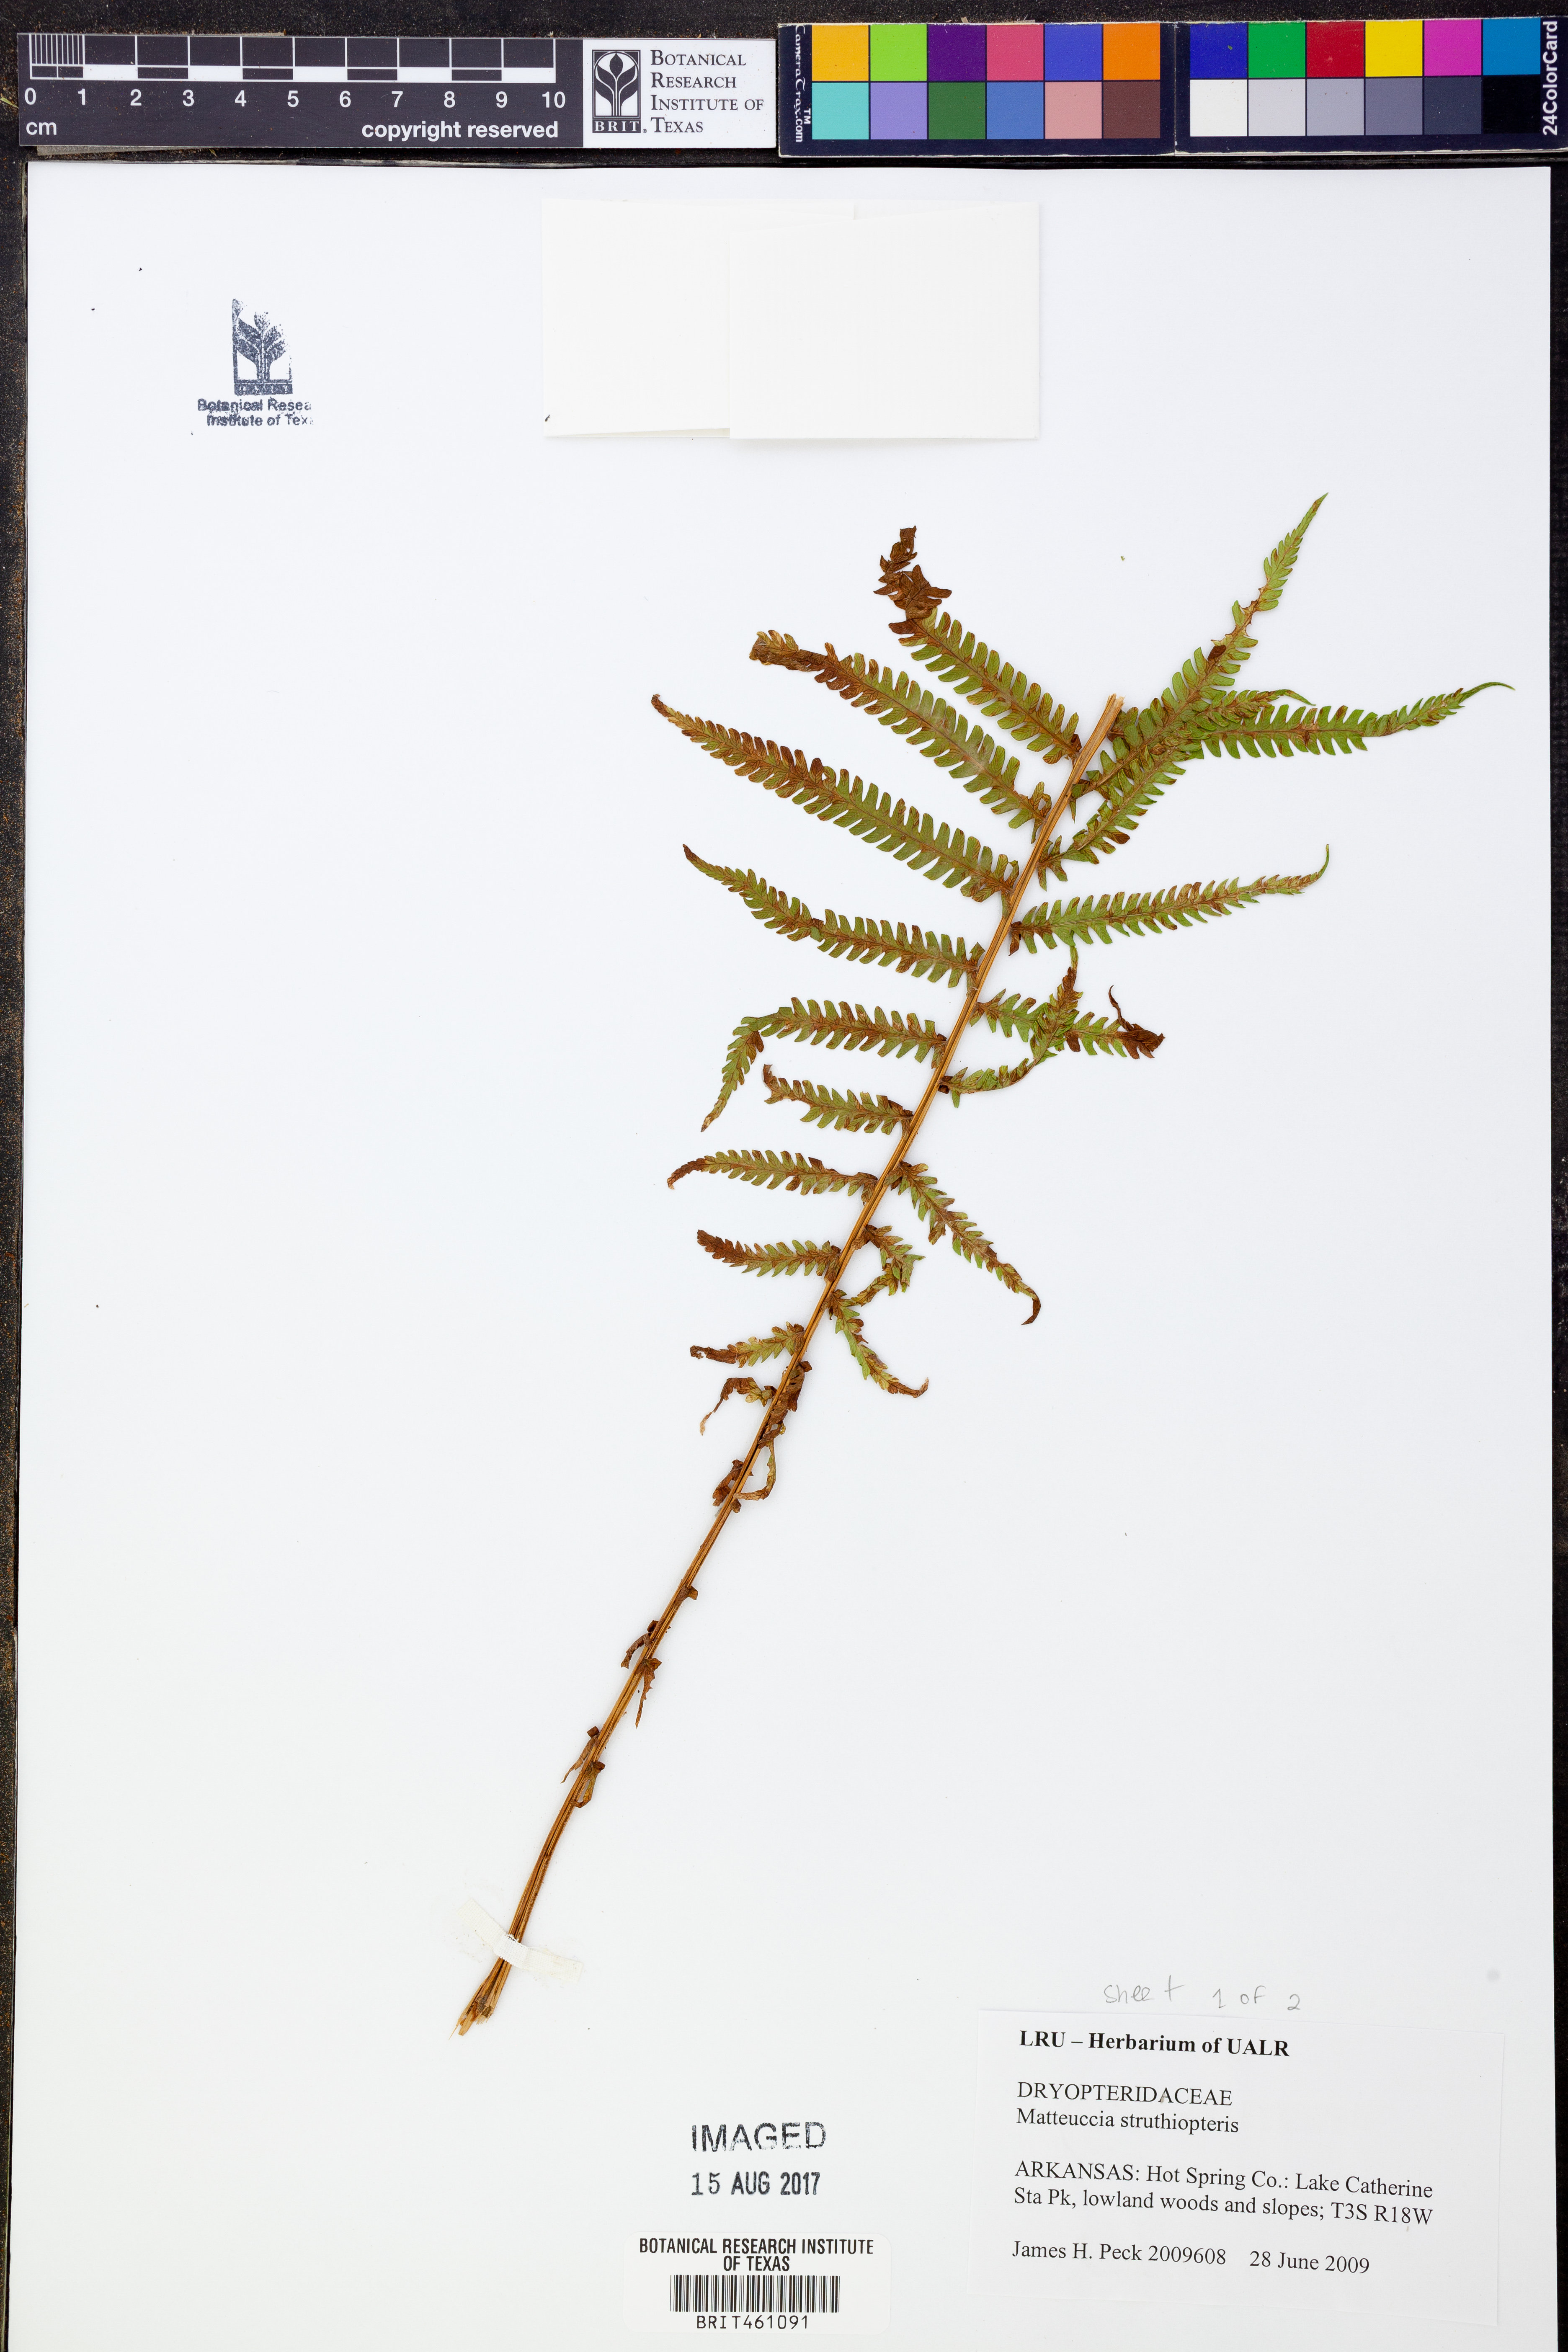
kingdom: Plantae
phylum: Tracheophyta
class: Polypodiopsida
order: Polypodiales
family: Onocleaceae
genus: Matteuccia
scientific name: Matteuccia struthiopteris
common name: Ostrich fern
